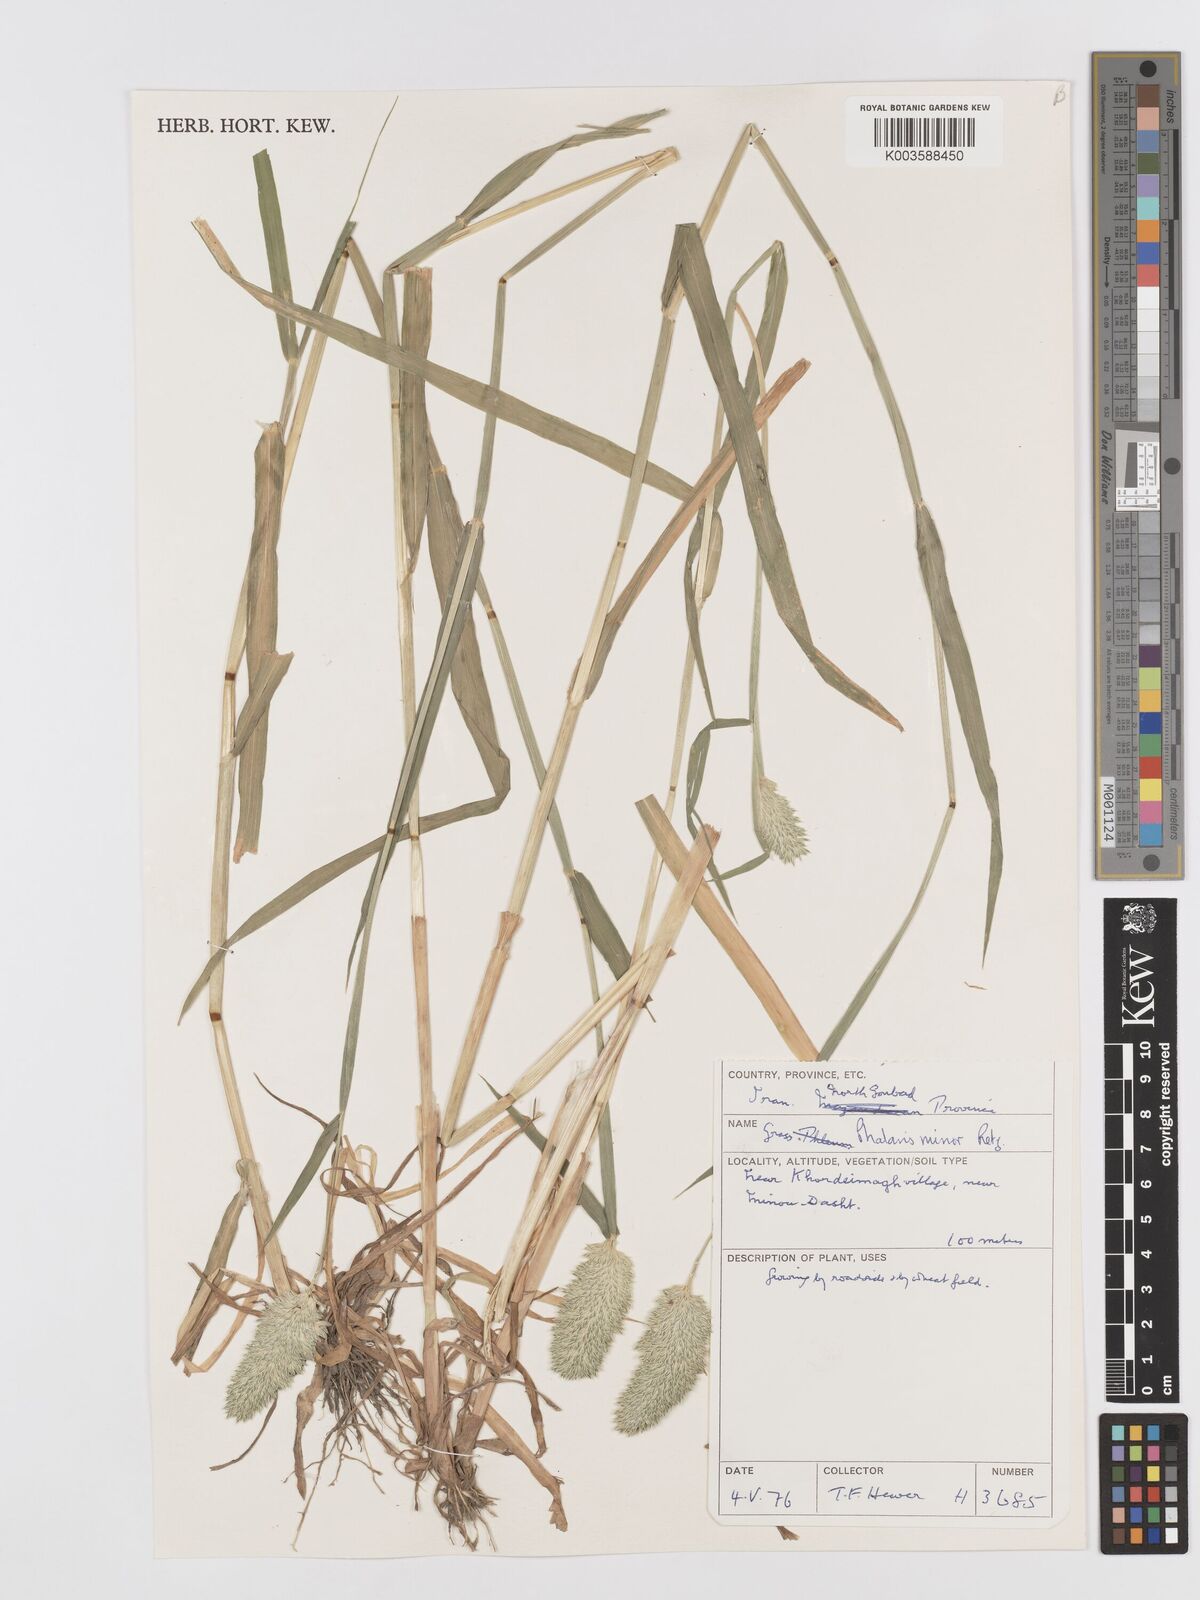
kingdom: Plantae
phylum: Tracheophyta
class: Liliopsida
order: Poales
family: Poaceae
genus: Phalaris
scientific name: Phalaris minor
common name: Littleseed canarygrass
